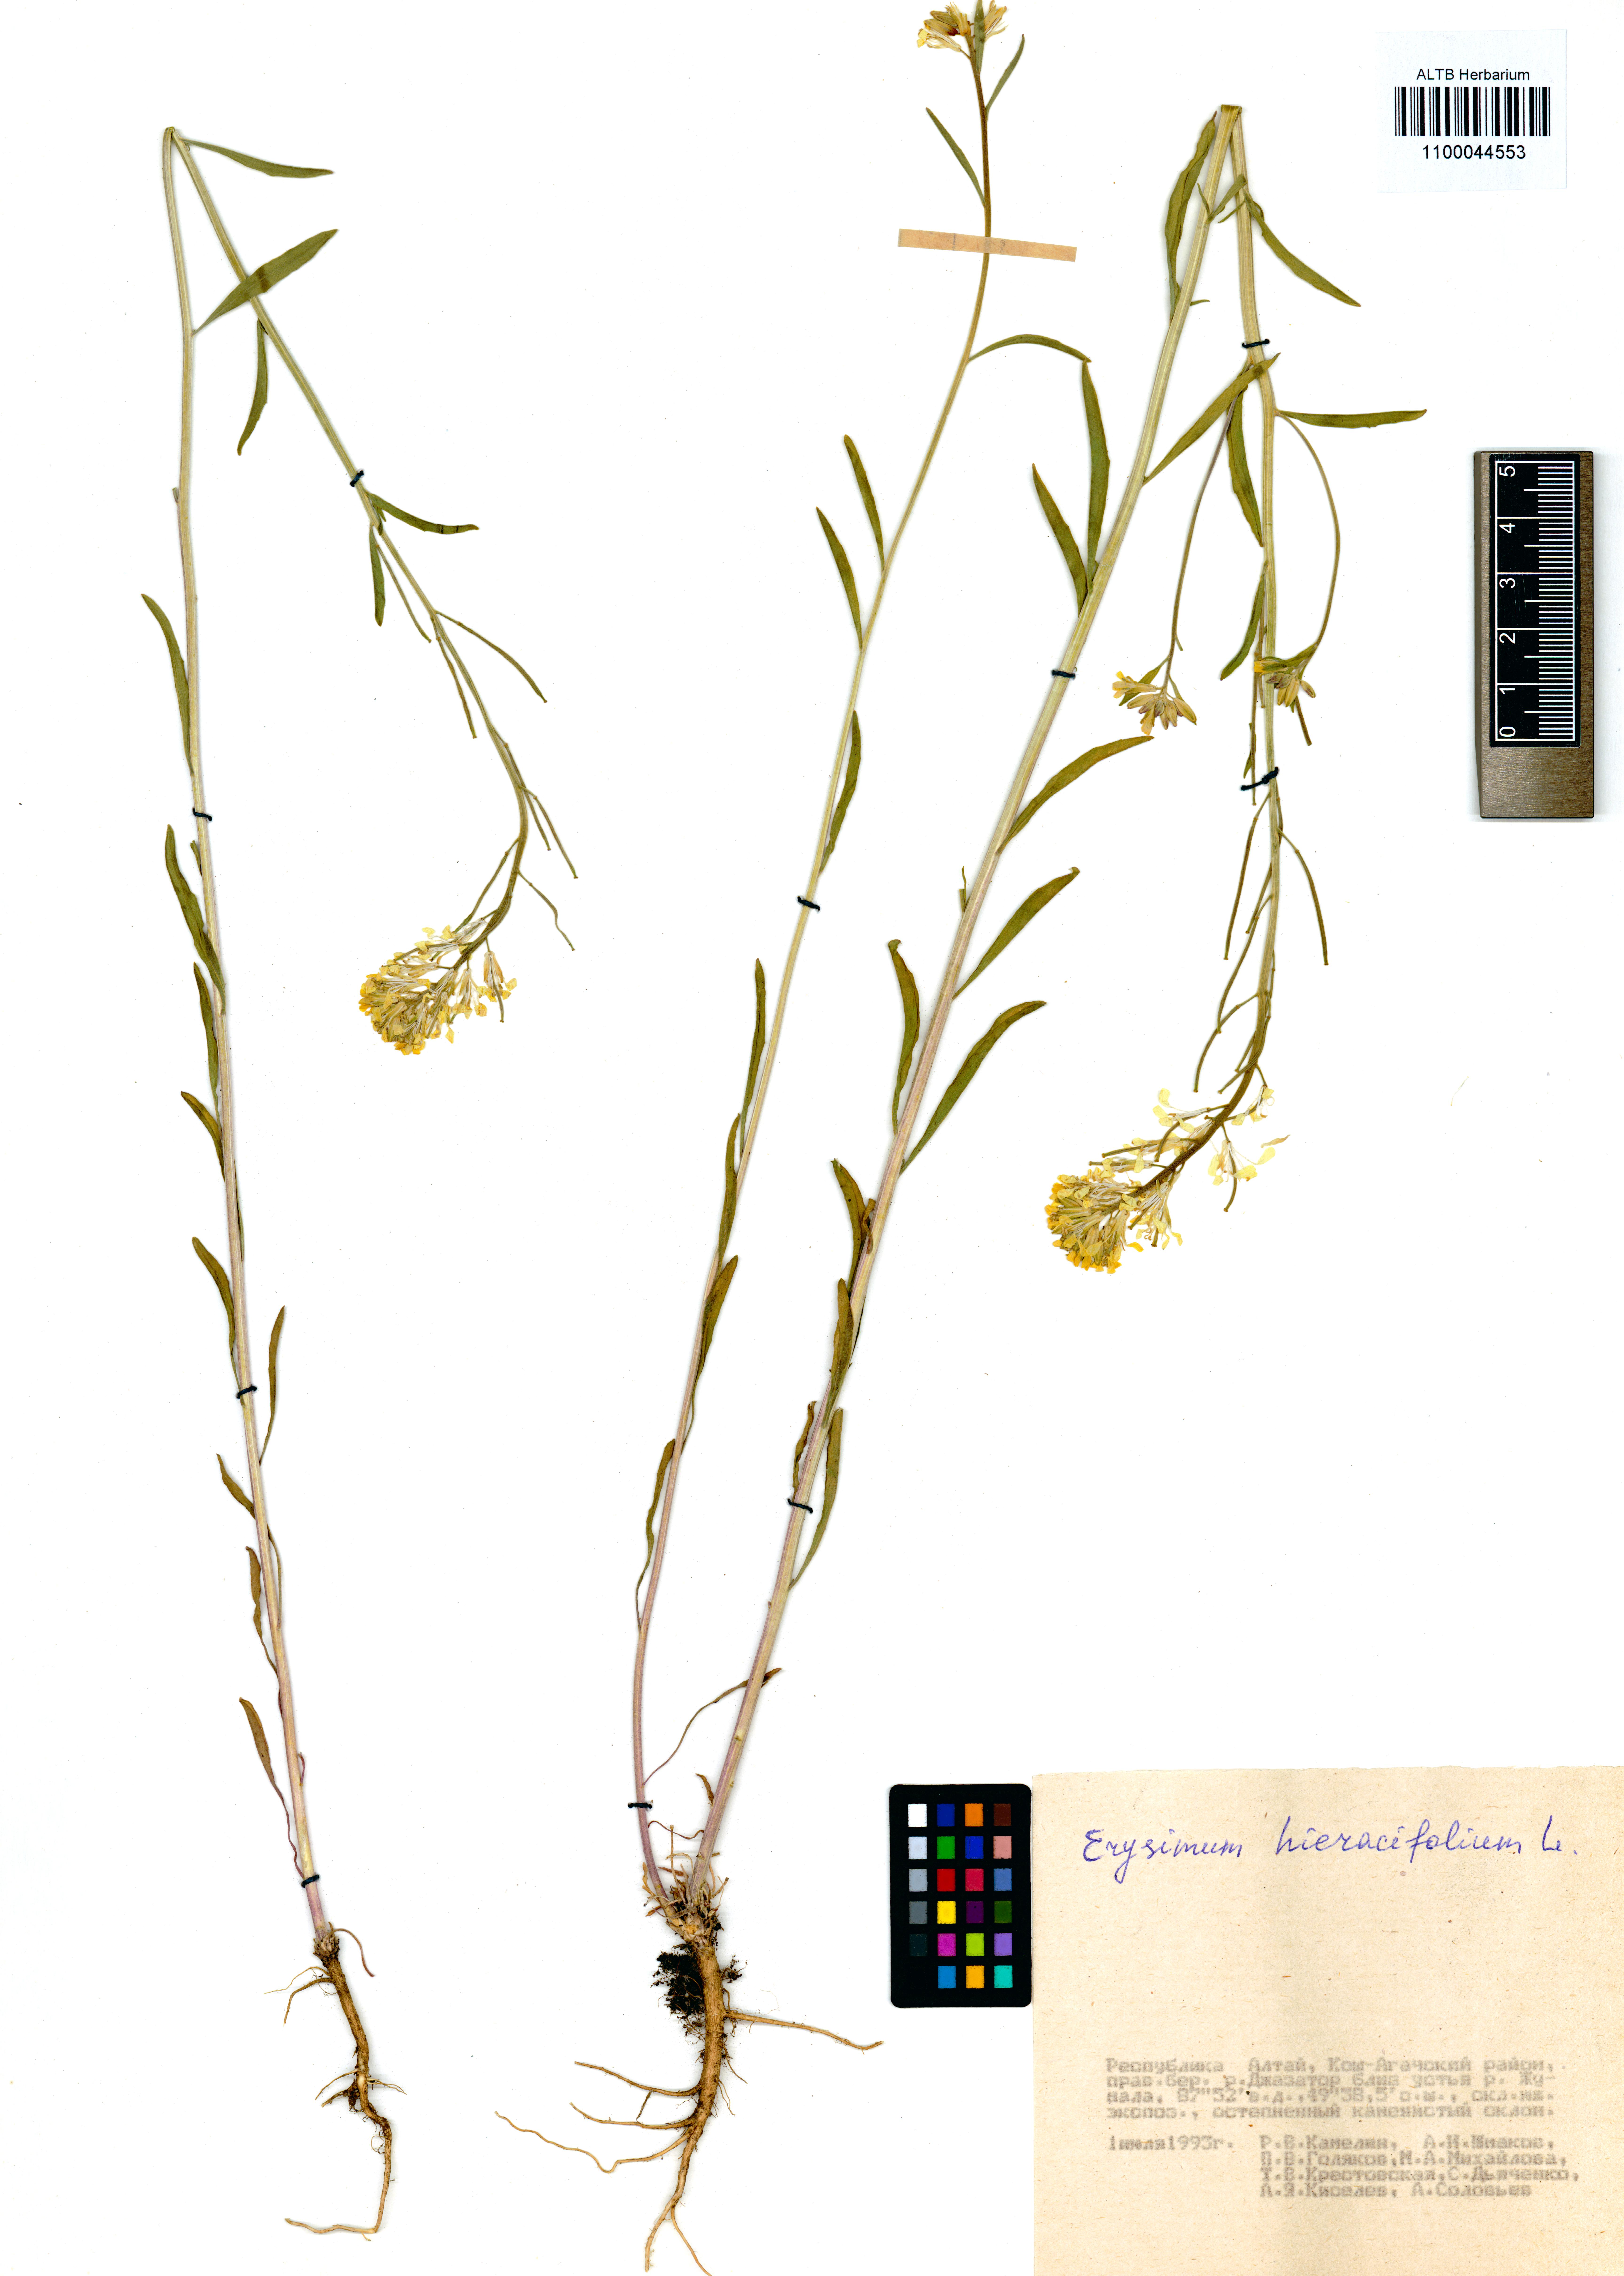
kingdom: Plantae
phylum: Tracheophyta
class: Magnoliopsida
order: Brassicales
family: Brassicaceae
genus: Erysimum
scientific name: Erysimum hieraciifolium
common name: European wallflower
